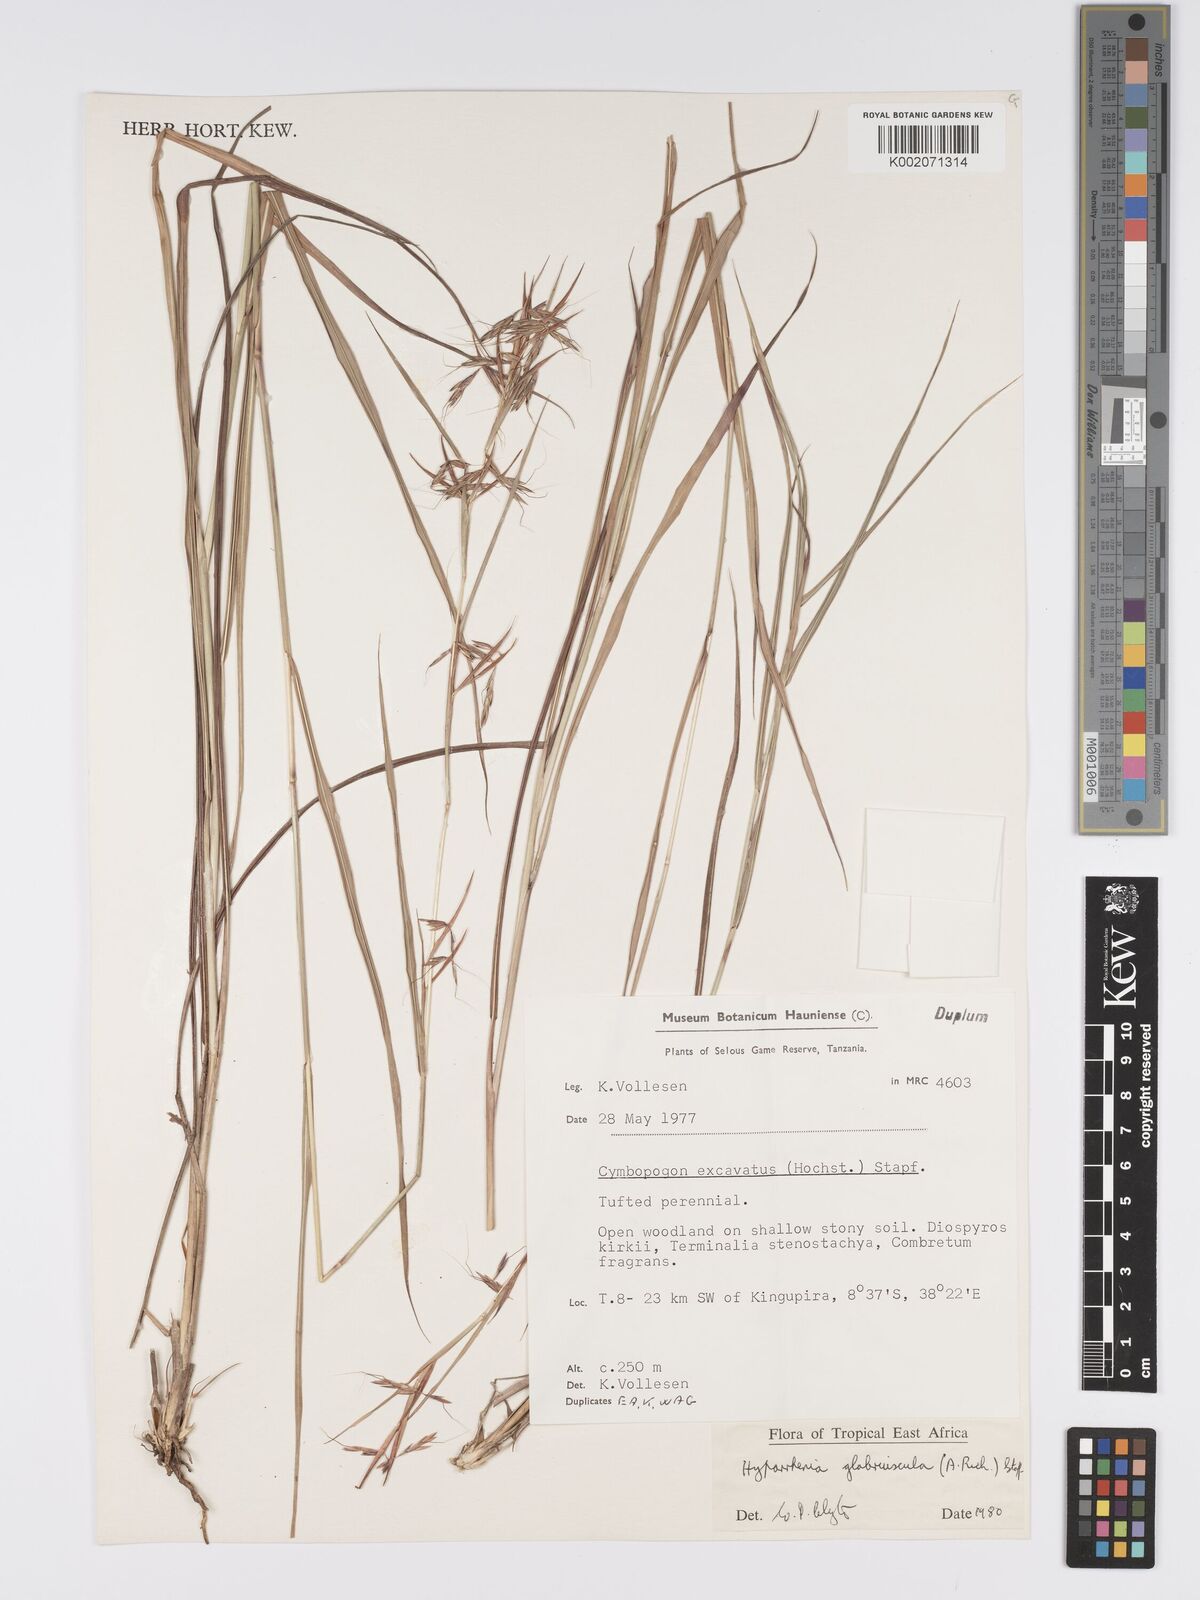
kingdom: Plantae
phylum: Tracheophyta
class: Liliopsida
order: Poales
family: Poaceae
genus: Hyparrhenia
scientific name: Hyparrhenia glabriuscula
